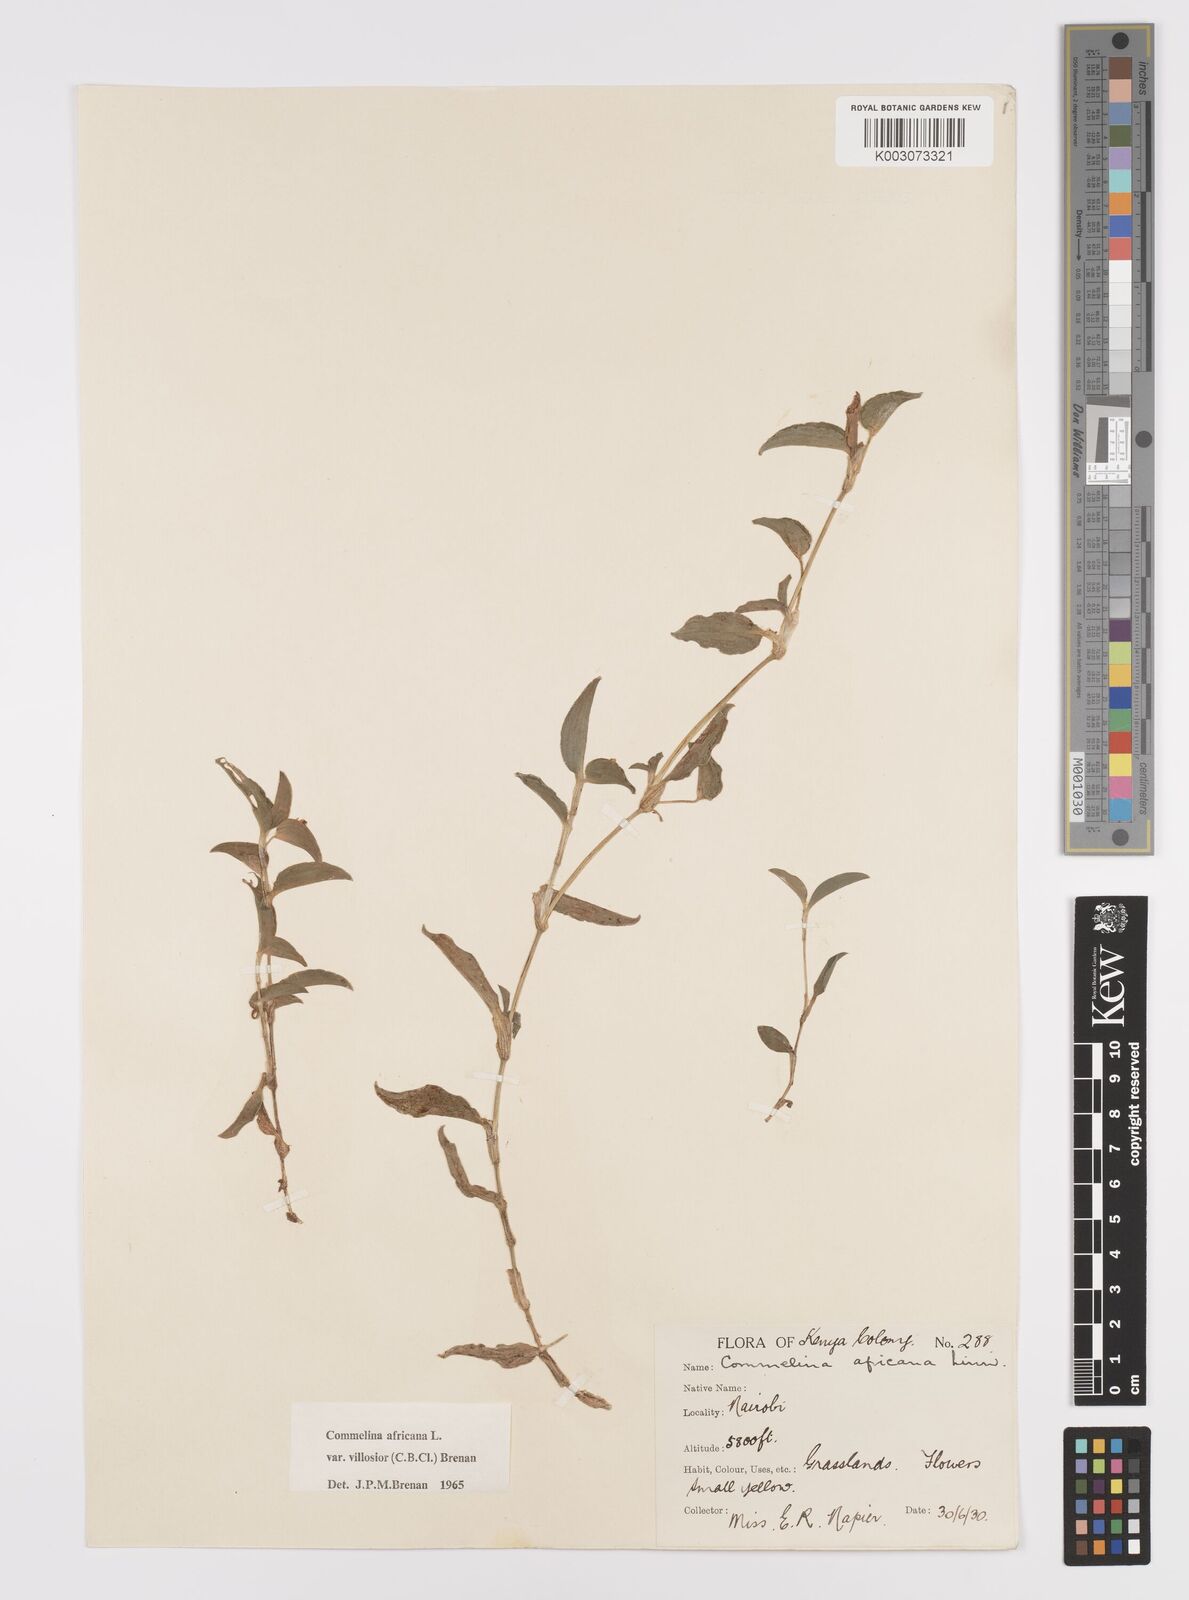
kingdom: Plantae
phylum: Tracheophyta
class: Liliopsida
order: Commelinales
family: Commelinaceae
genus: Commelina
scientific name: Commelina africana
